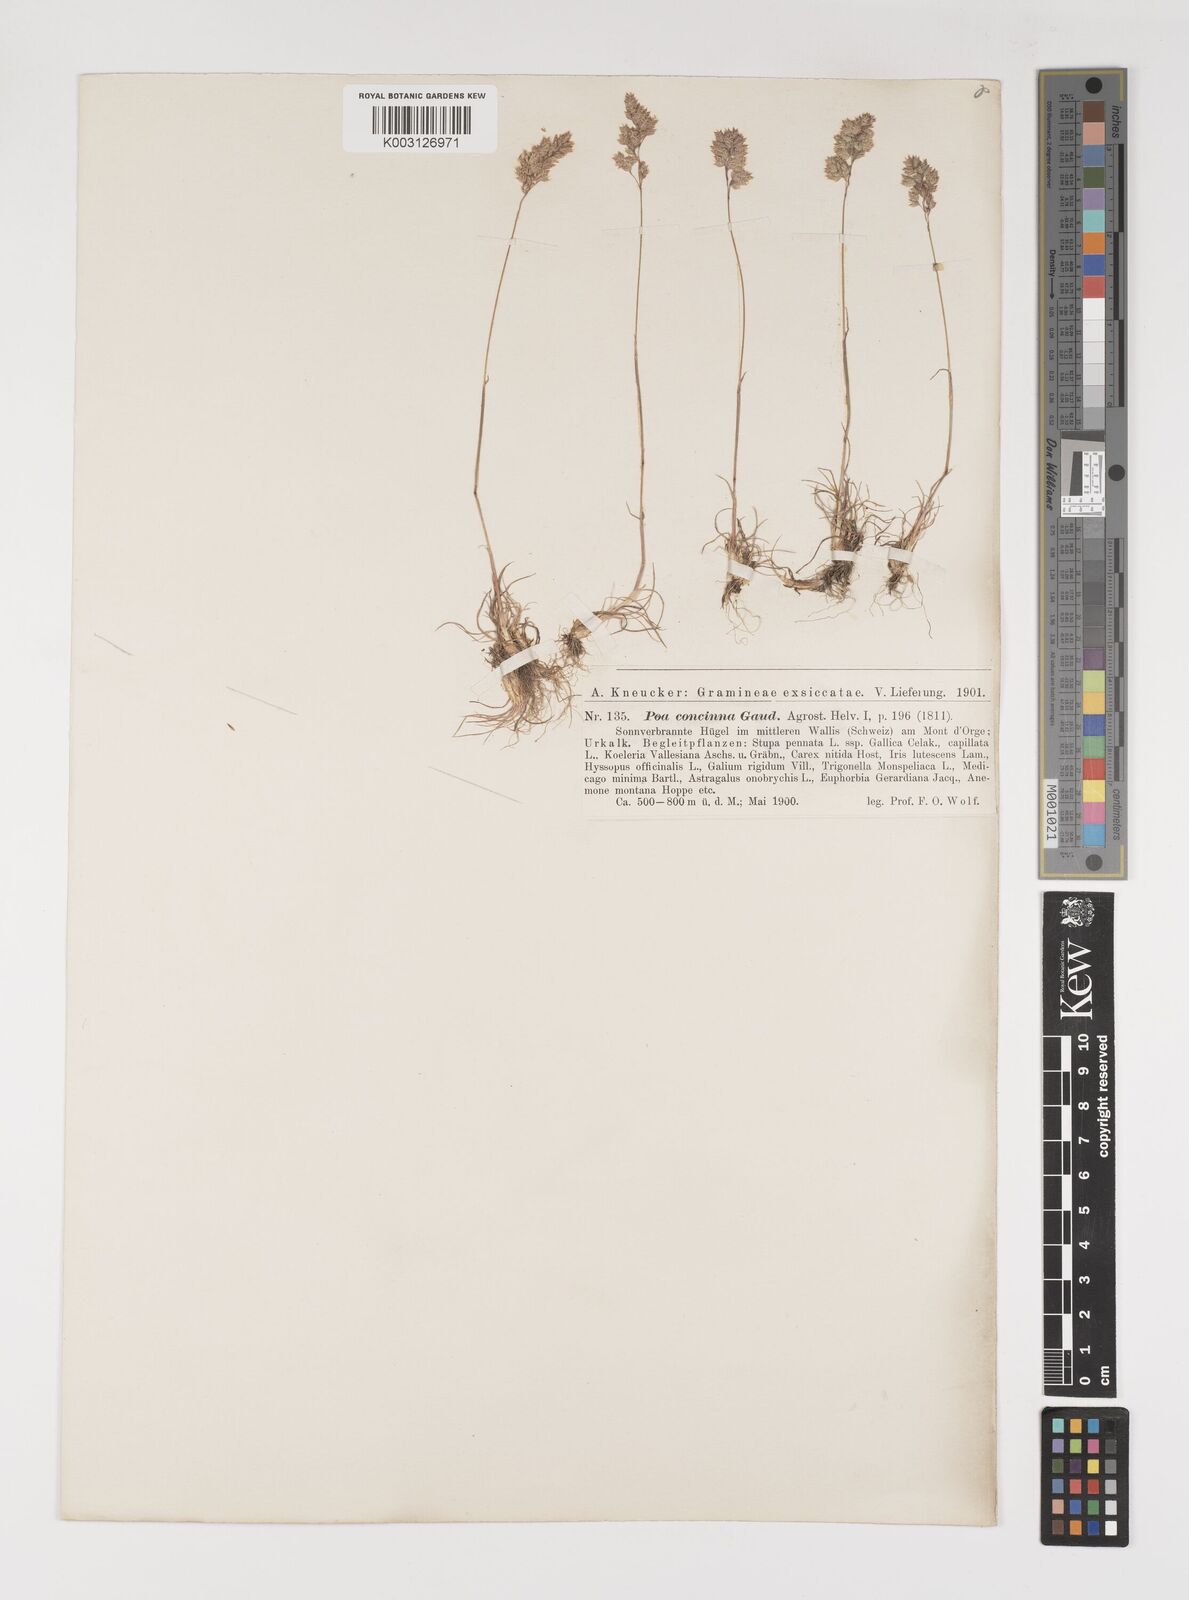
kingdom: Plantae
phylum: Tracheophyta
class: Liliopsida
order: Poales
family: Poaceae
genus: Poa
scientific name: Poa perconcinna
